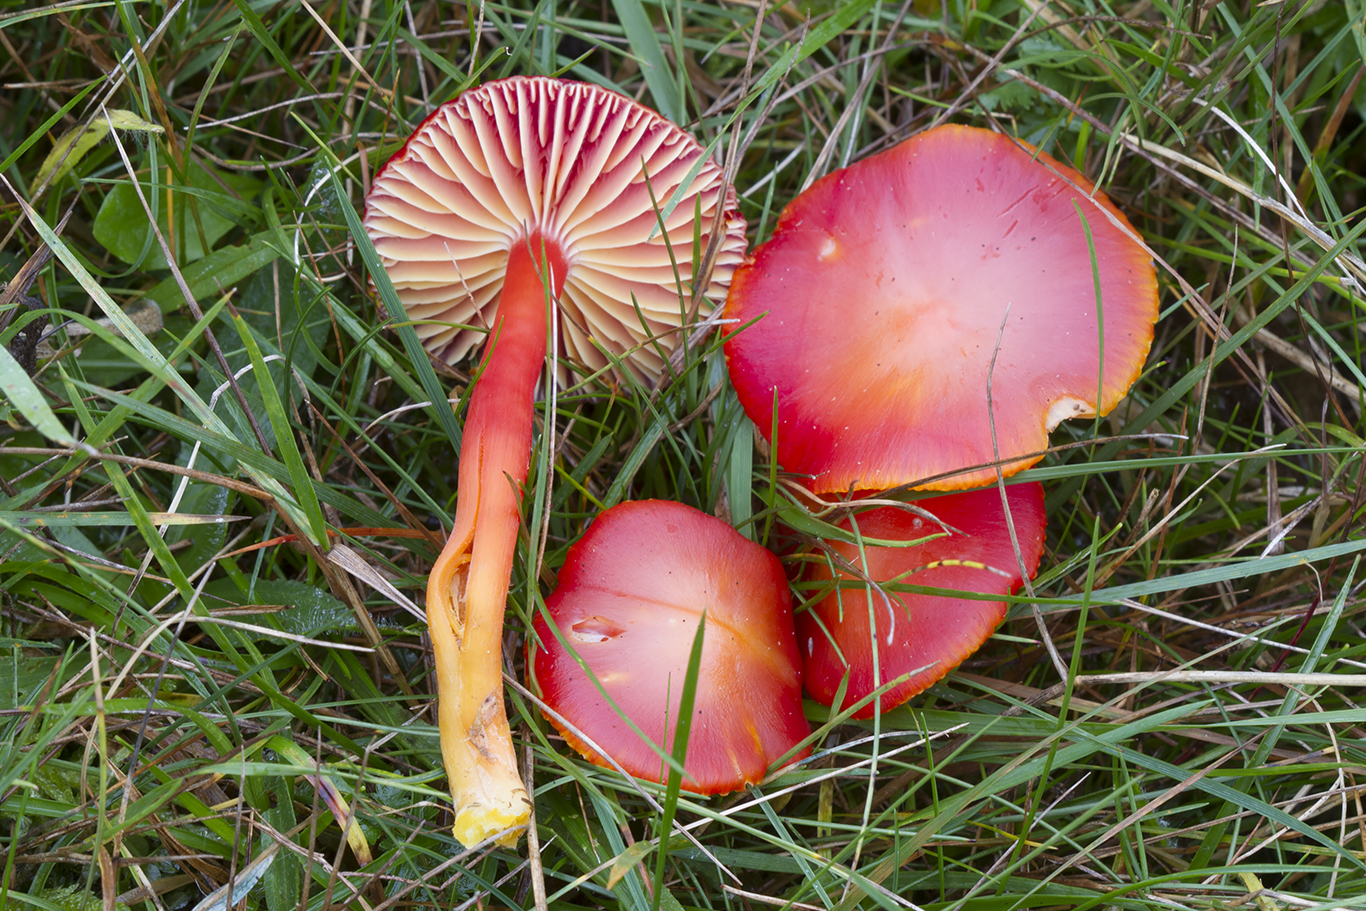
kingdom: Fungi
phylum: Basidiomycota
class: Agaricomycetes
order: Agaricales
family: Hygrophoraceae
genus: Hygrocybe
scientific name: Hygrocybe coccinea
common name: cinnober-vokshat
